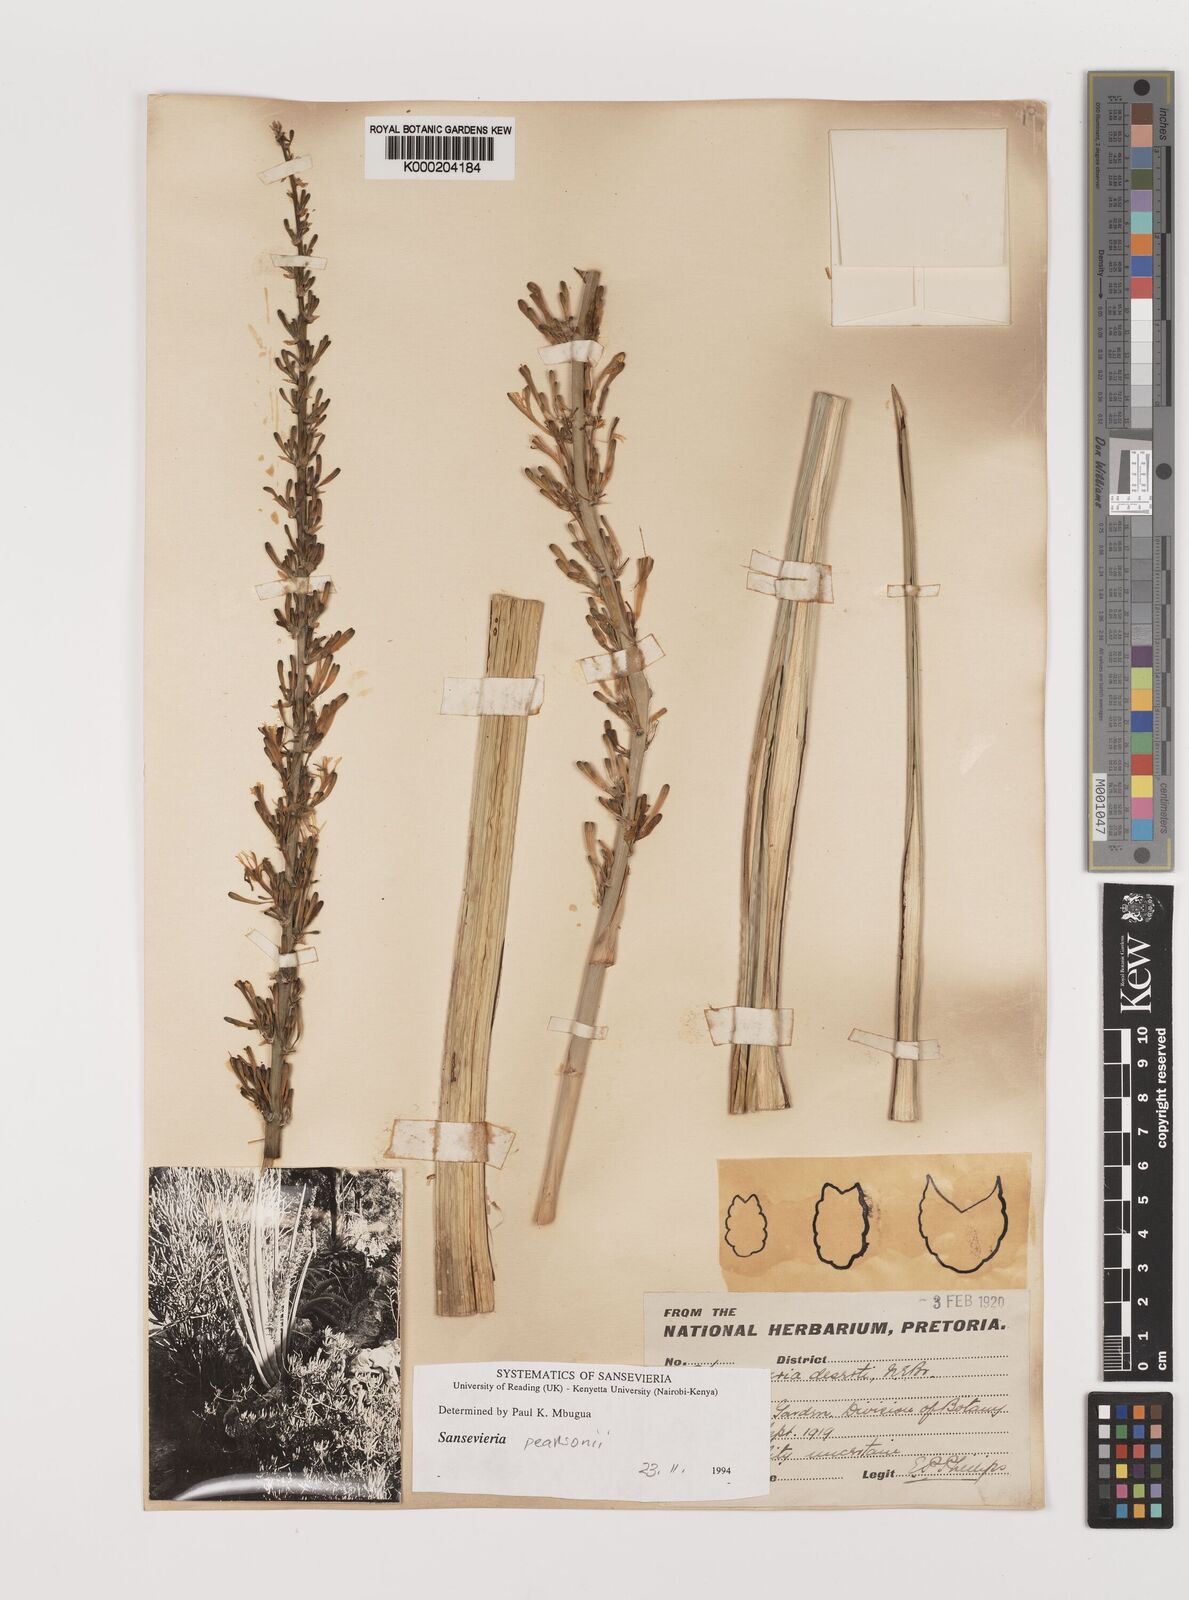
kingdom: Plantae
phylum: Tracheophyta
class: Liliopsida
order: Asparagales
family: Asparagaceae
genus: Dracaena
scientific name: Dracaena powellii
